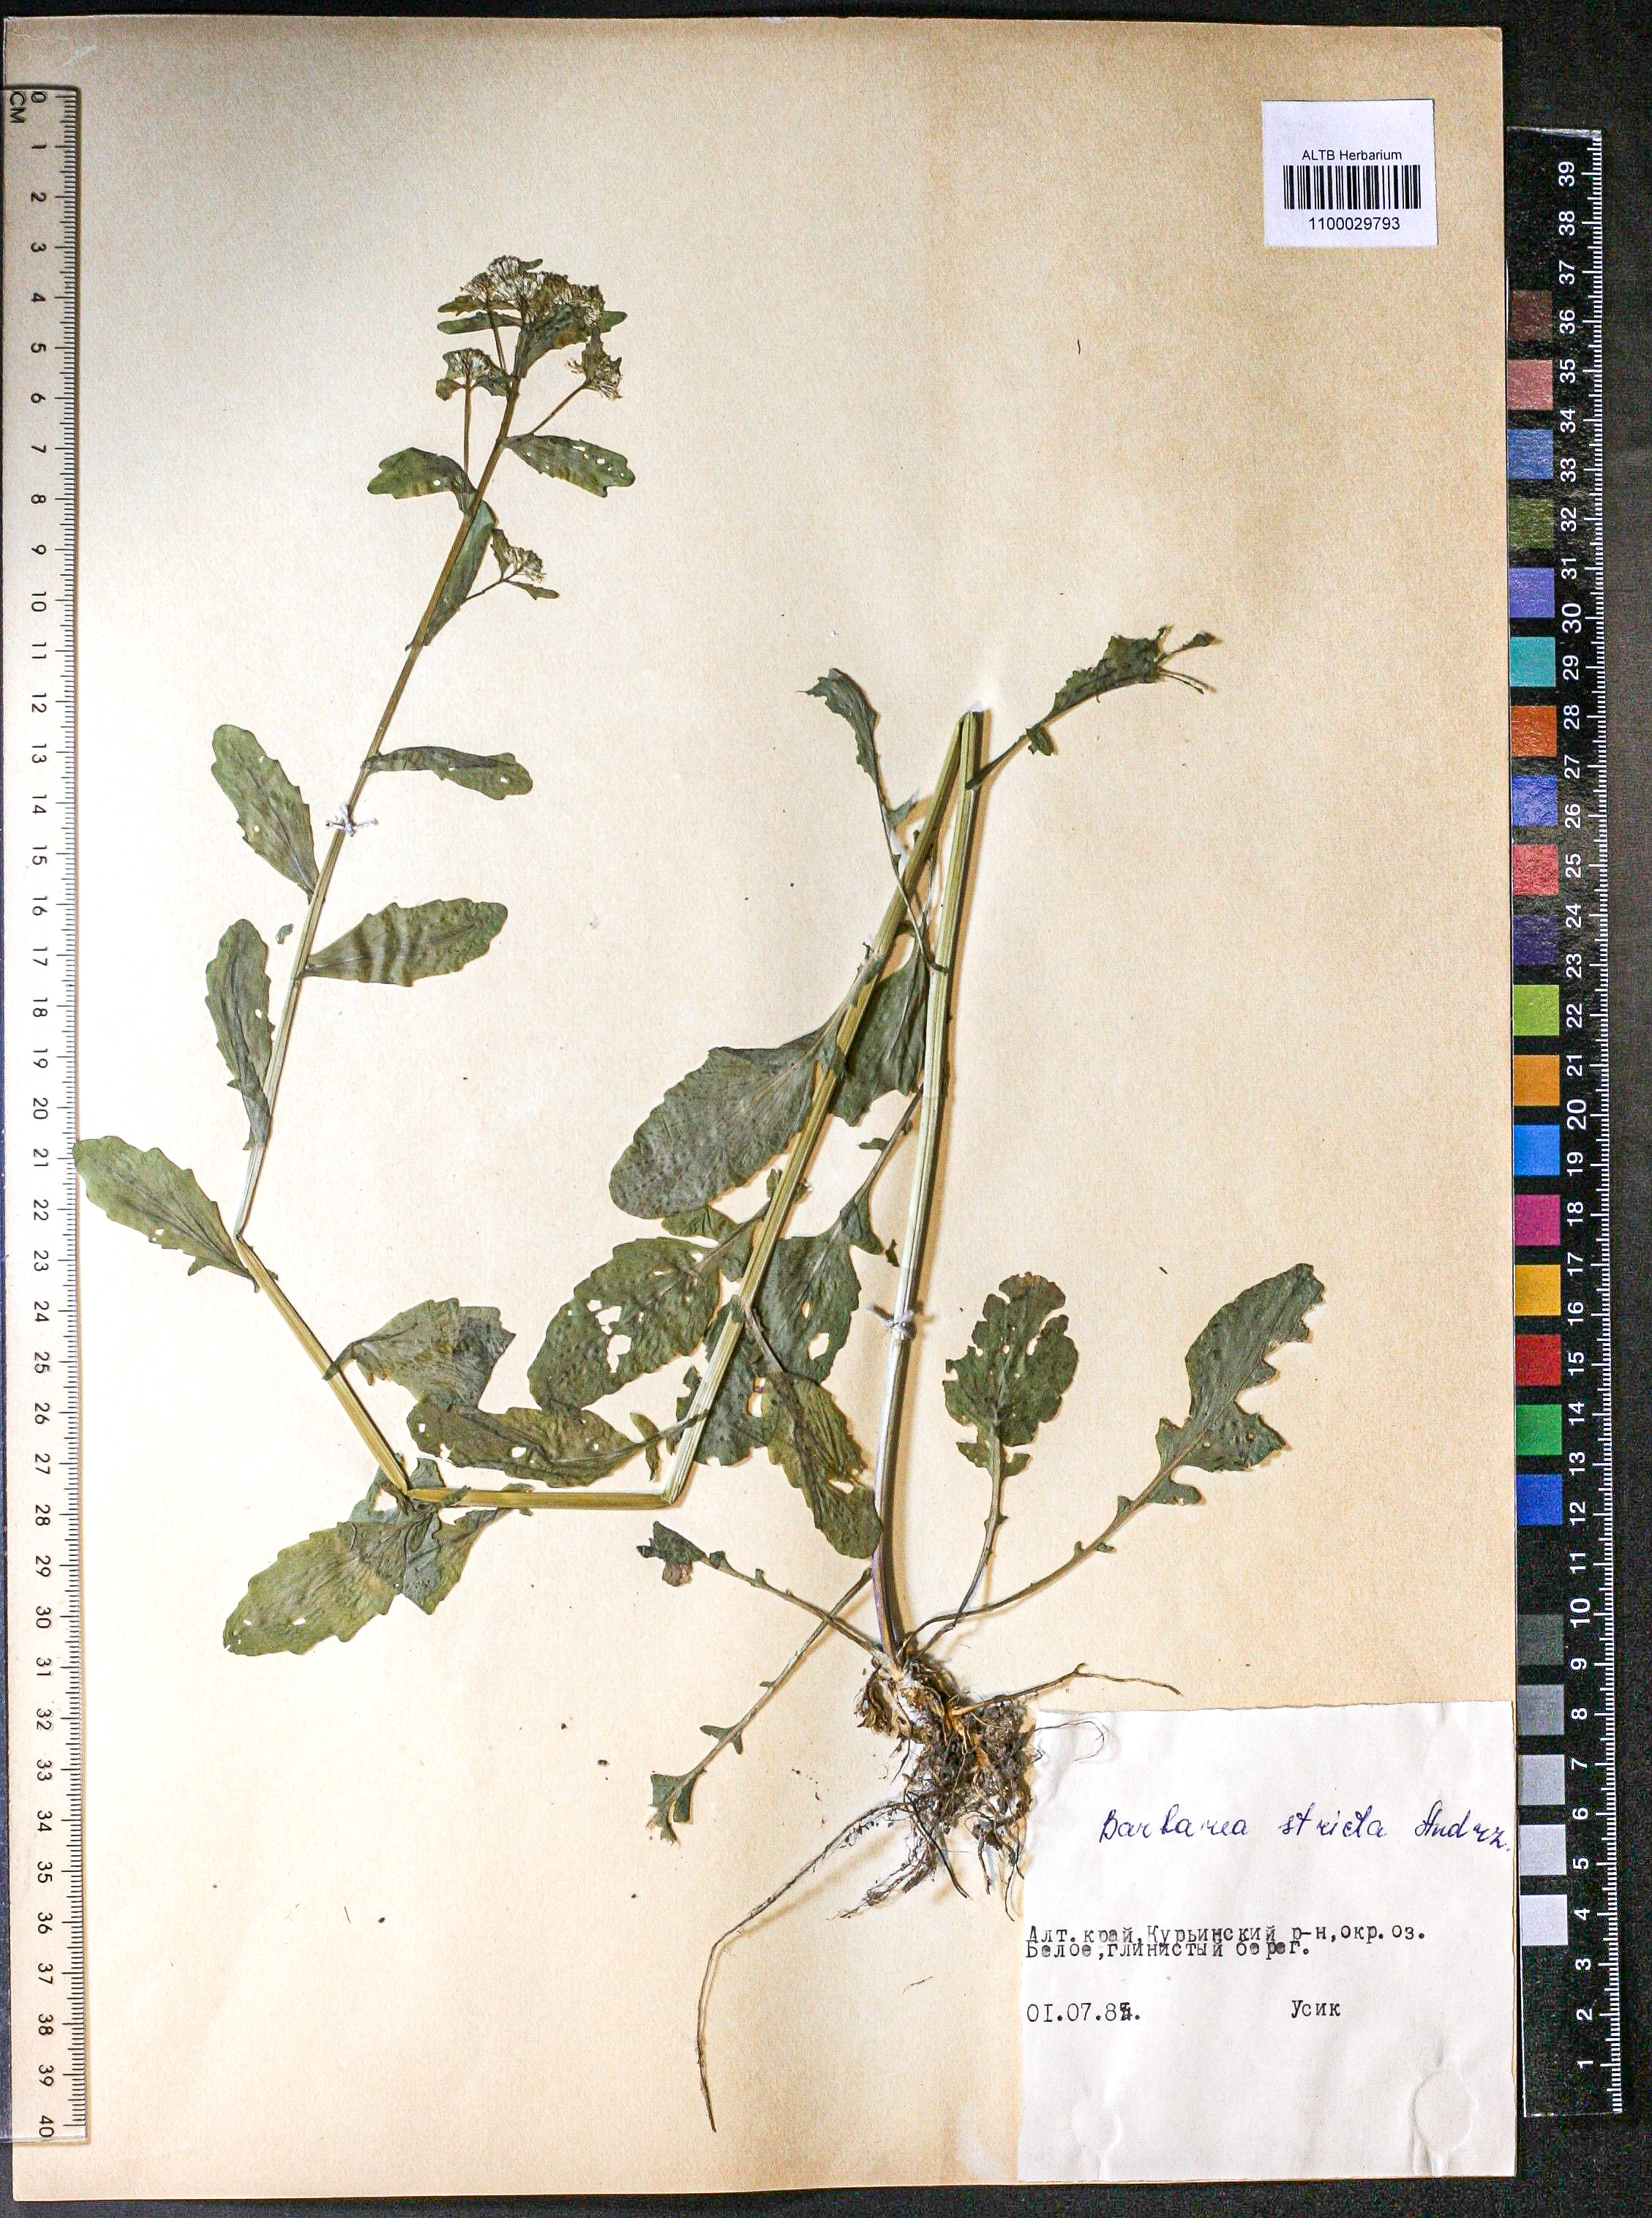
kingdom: Plantae
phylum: Tracheophyta
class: Magnoliopsida
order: Brassicales
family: Brassicaceae
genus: Barbarea
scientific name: Barbarea vulgaris
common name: Cressy-greens
